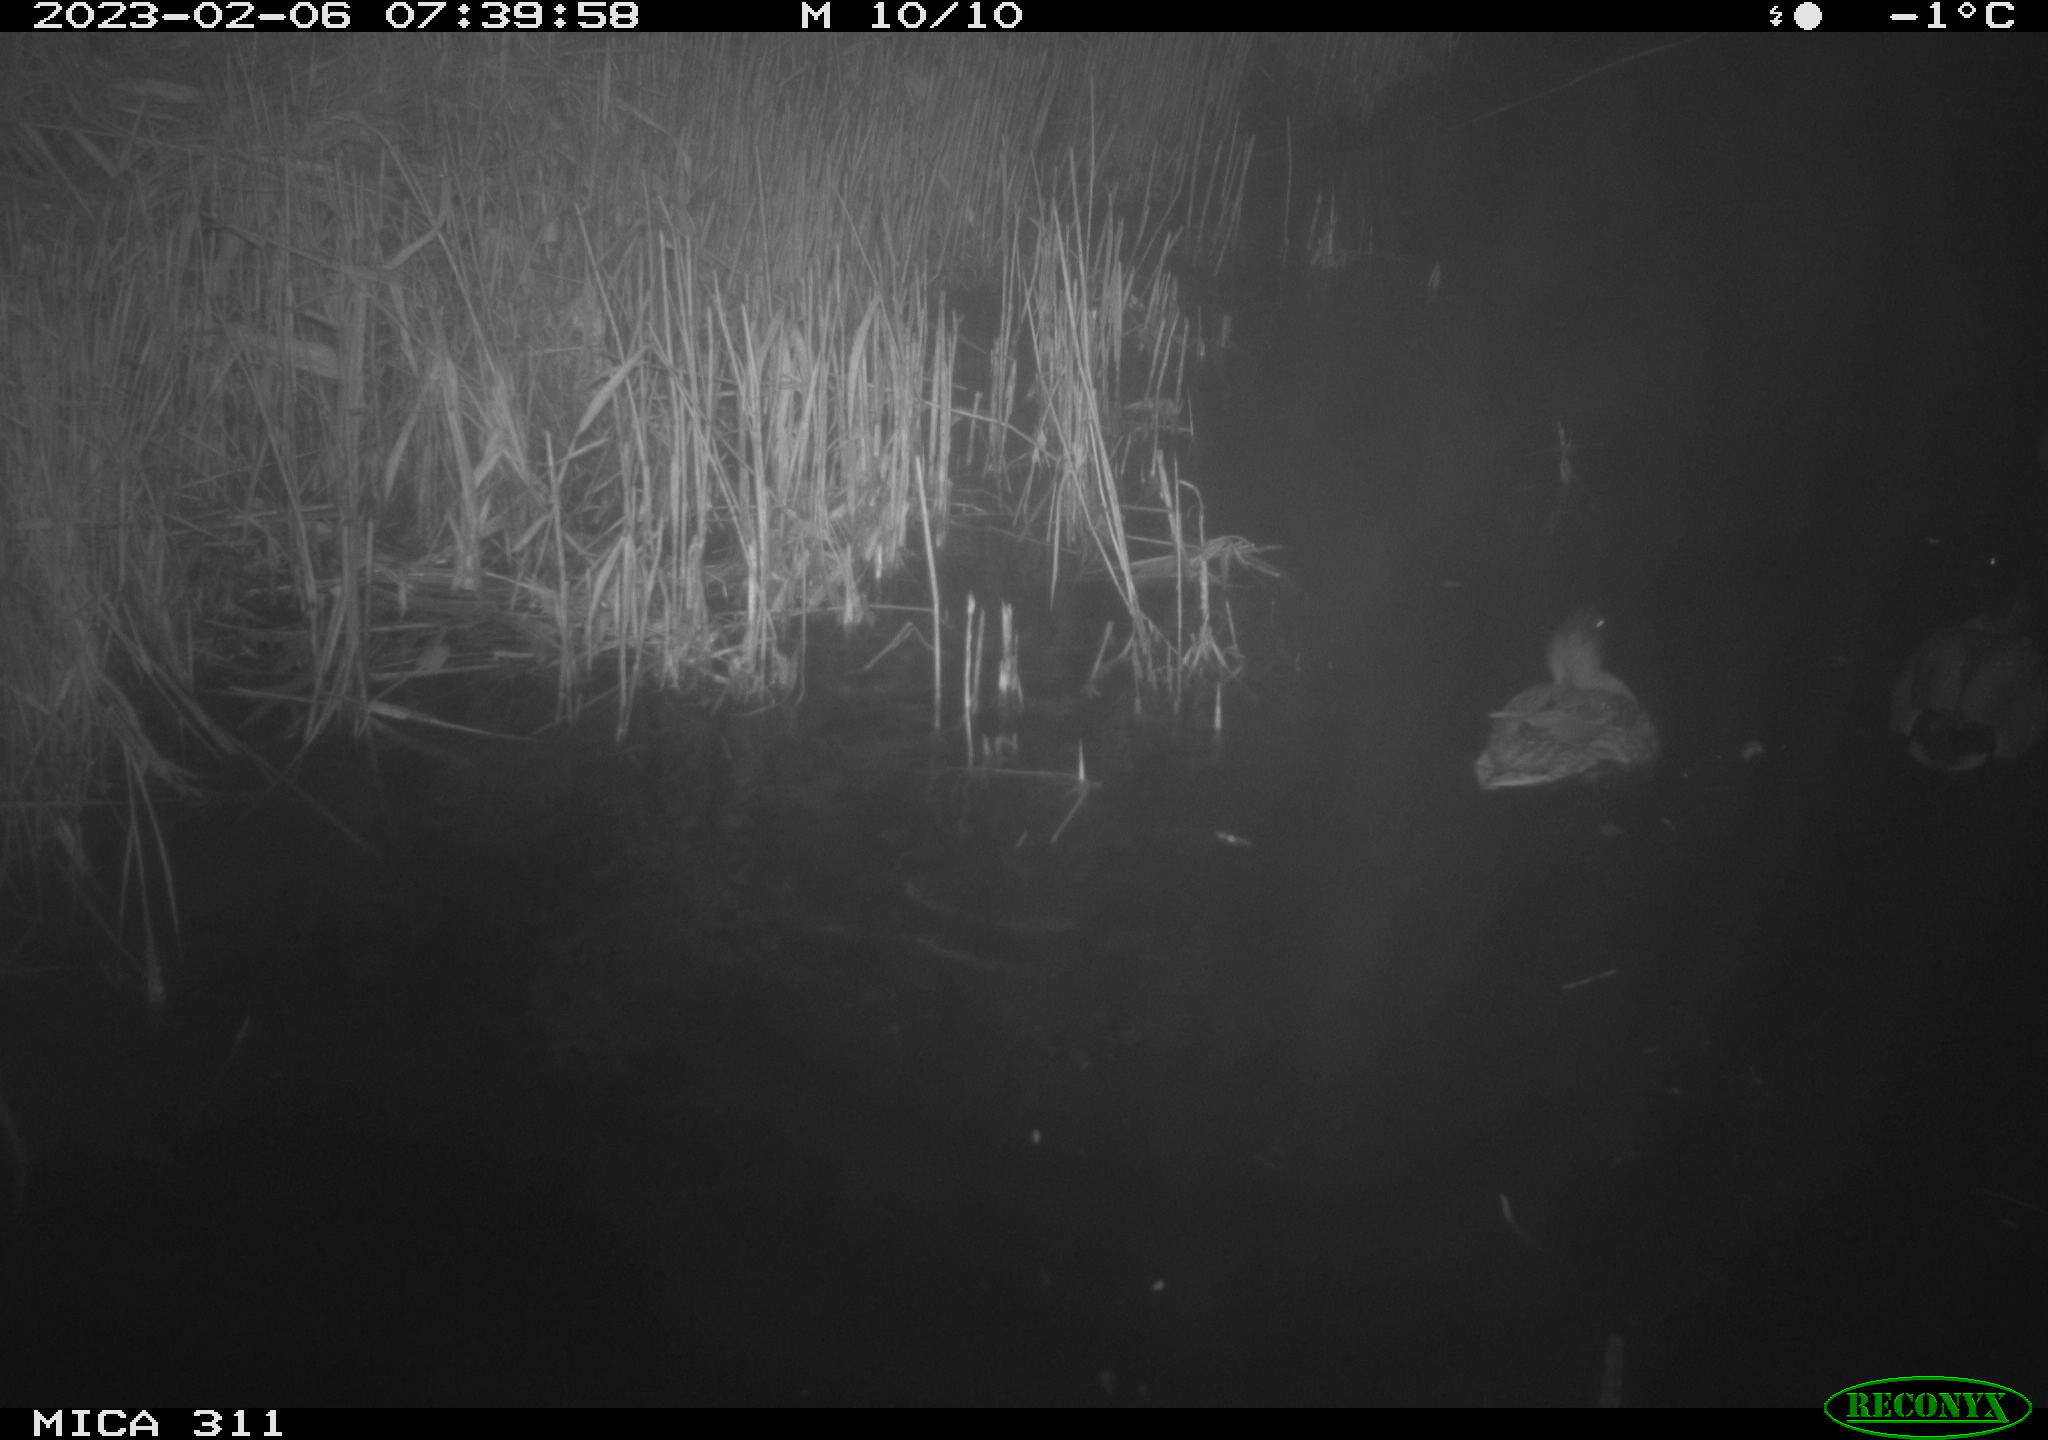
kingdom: Animalia
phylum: Chordata
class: Aves
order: Anseriformes
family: Anatidae
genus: Anas
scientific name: Anas platyrhynchos
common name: Mallard
